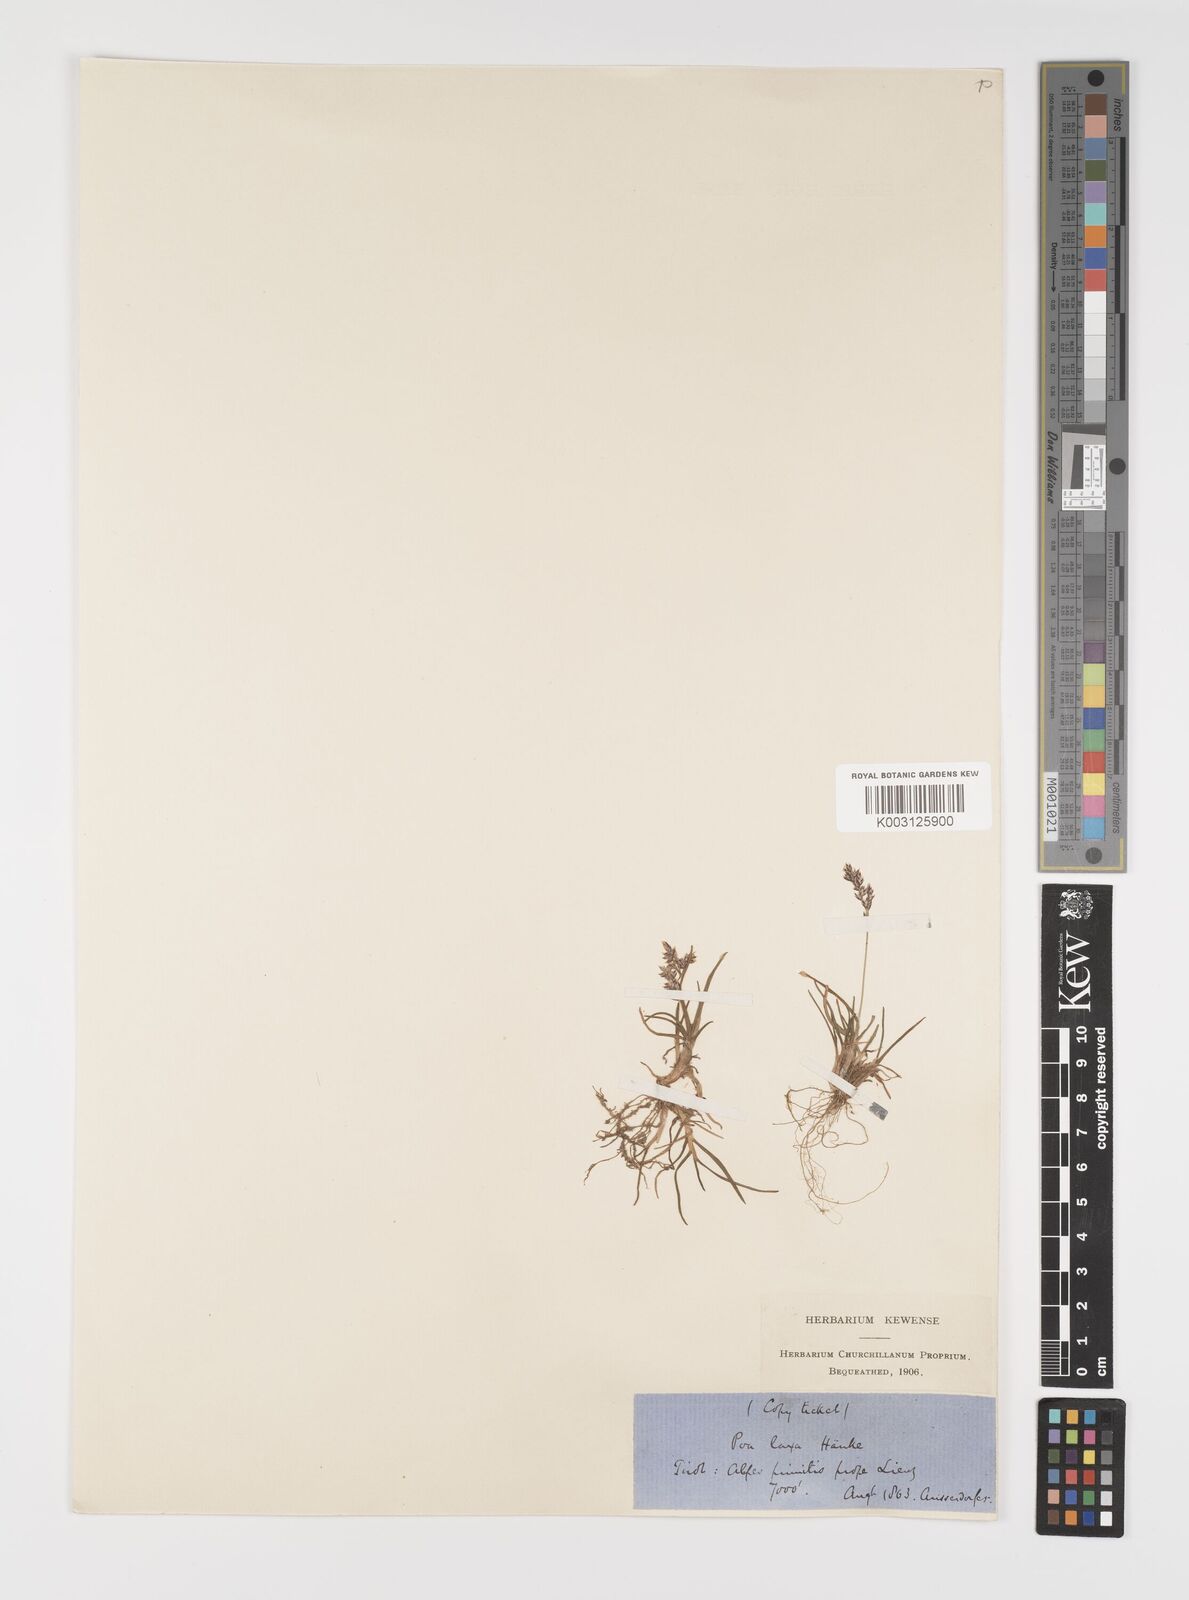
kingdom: Plantae
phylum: Tracheophyta
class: Liliopsida
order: Poales
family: Poaceae
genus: Poa
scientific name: Poa laxa
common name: Lax bluegrass
